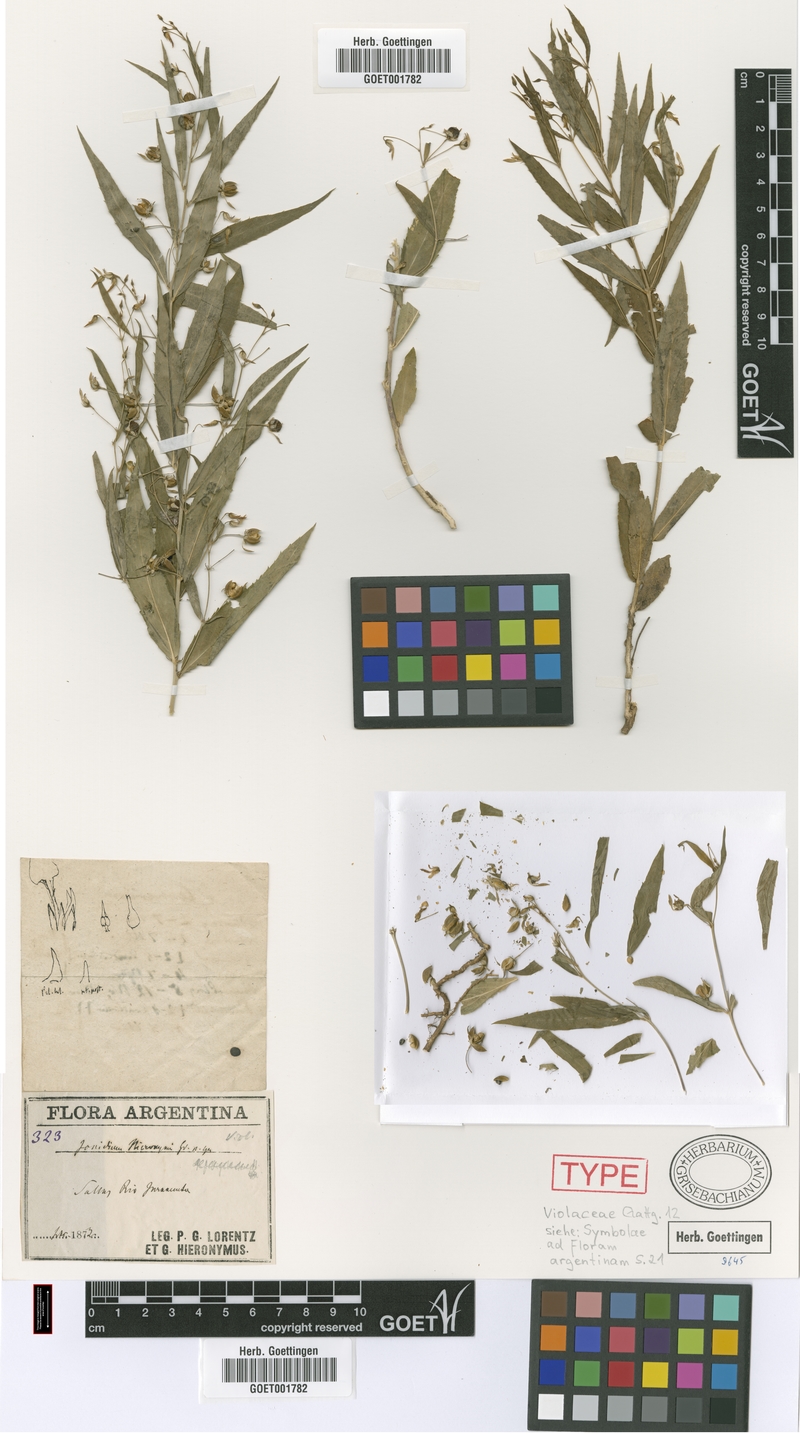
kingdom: Plantae
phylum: Tracheophyta
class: Magnoliopsida
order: Malpighiales
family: Violaceae
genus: Pombalia
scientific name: Pombalia oppositifolia
